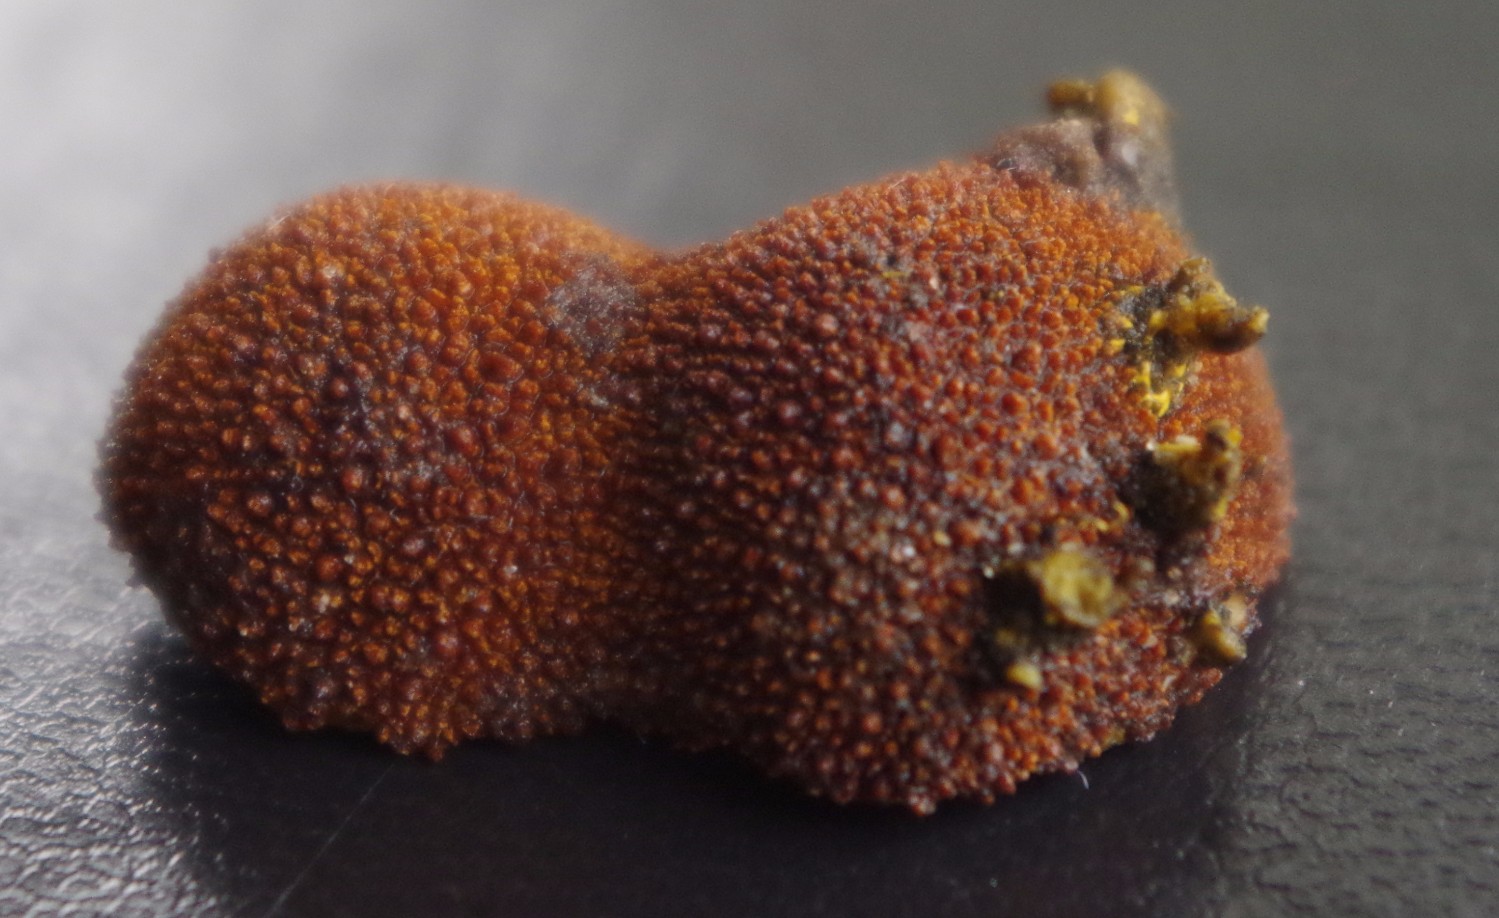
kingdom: Fungi
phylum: Ascomycota
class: Eurotiomycetes
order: Eurotiales
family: Elaphomycetaceae
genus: Elaphomyces
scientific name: Elaphomyces muricatus
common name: vortet hjortetrøffel
